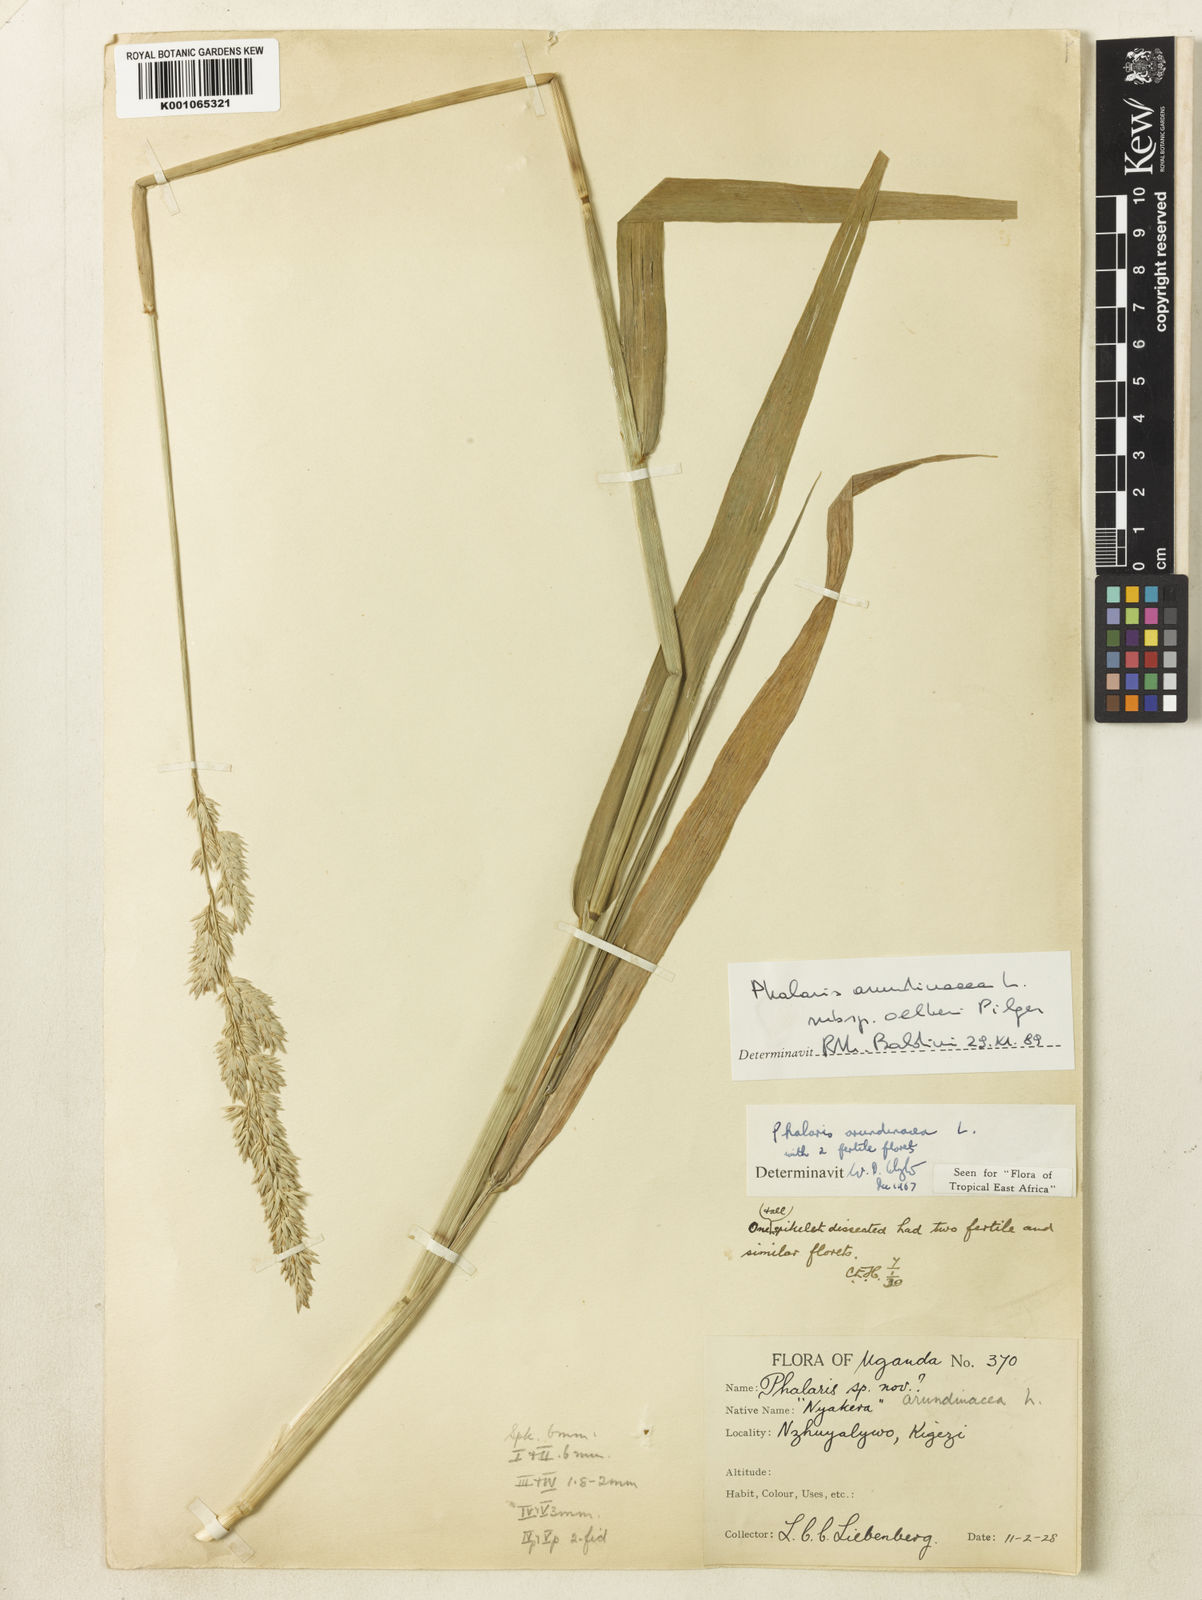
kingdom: Plantae
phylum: Tracheophyta
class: Liliopsida
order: Poales
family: Poaceae
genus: Phalaris
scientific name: Phalaris arundinacea
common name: Reed canary-grass
